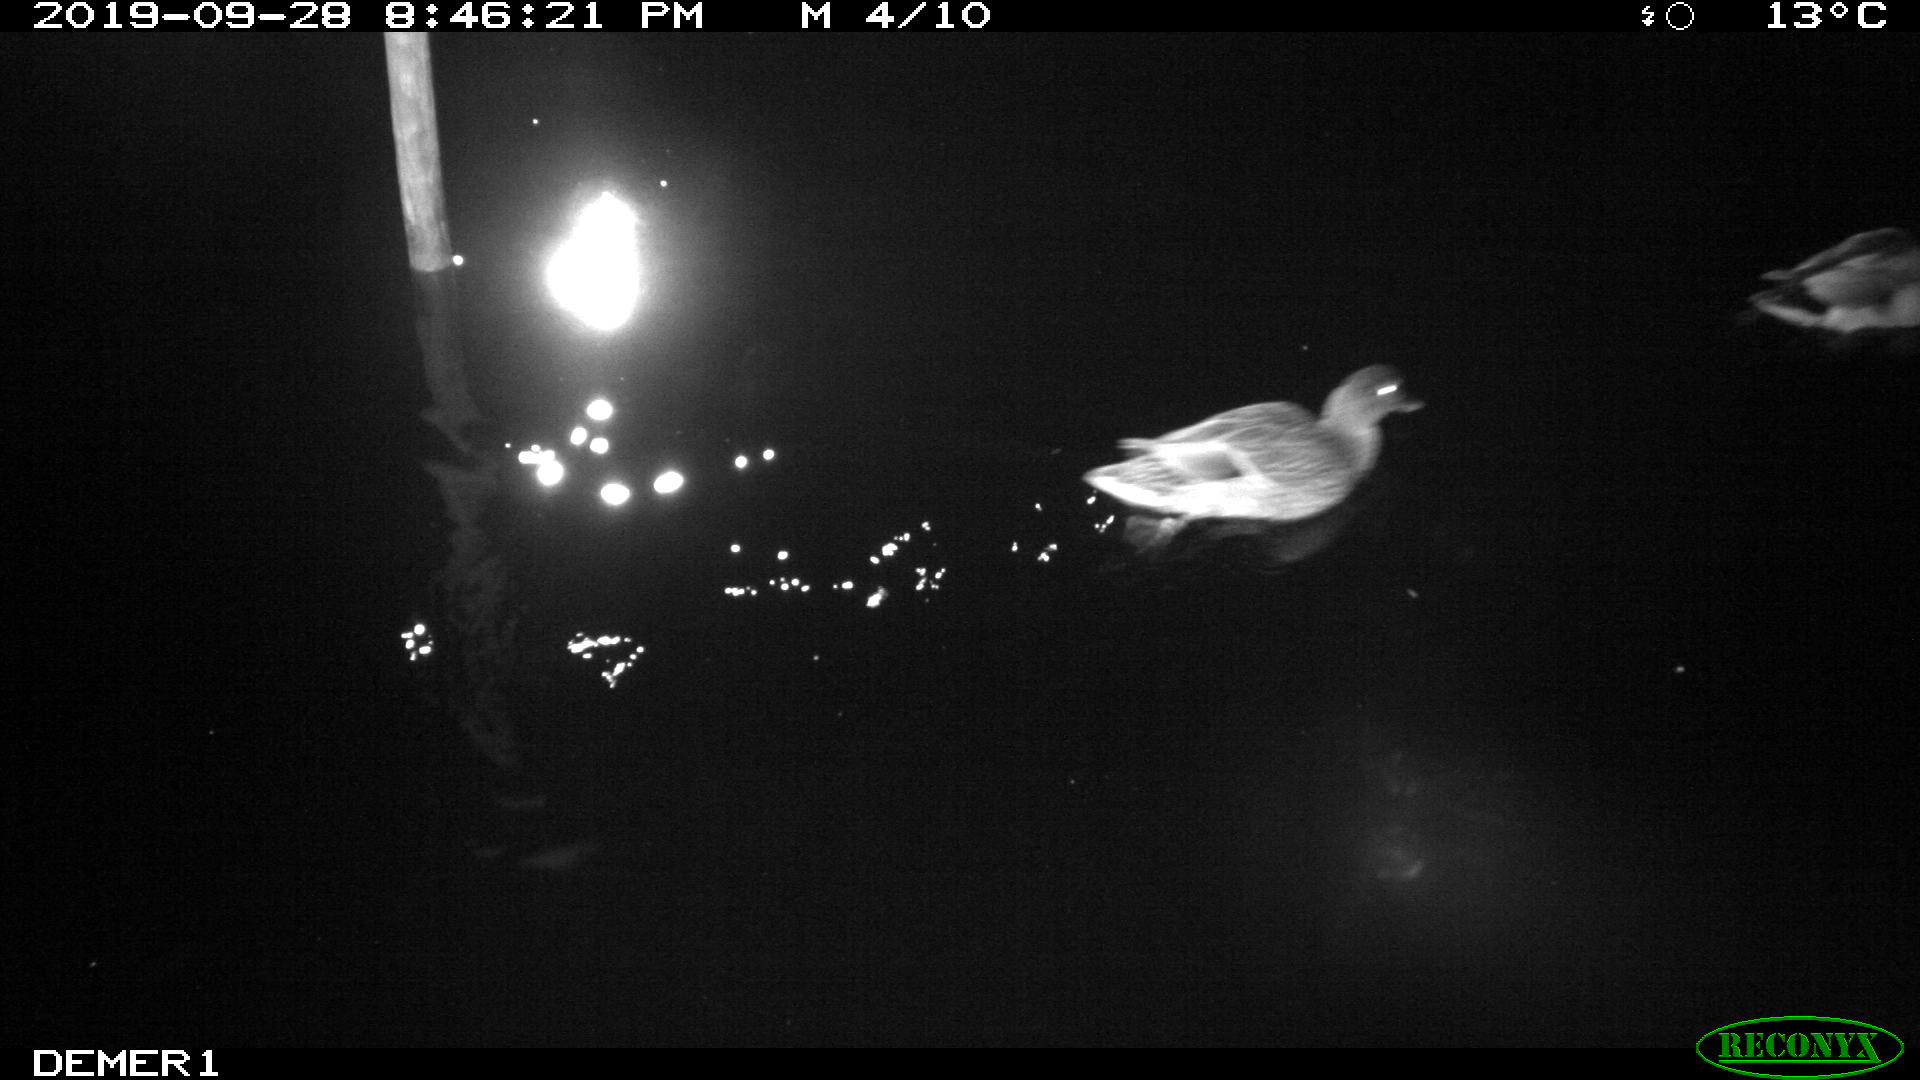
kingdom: Animalia
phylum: Chordata
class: Aves
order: Anseriformes
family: Anatidae
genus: Anas
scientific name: Anas platyrhynchos
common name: Mallard
